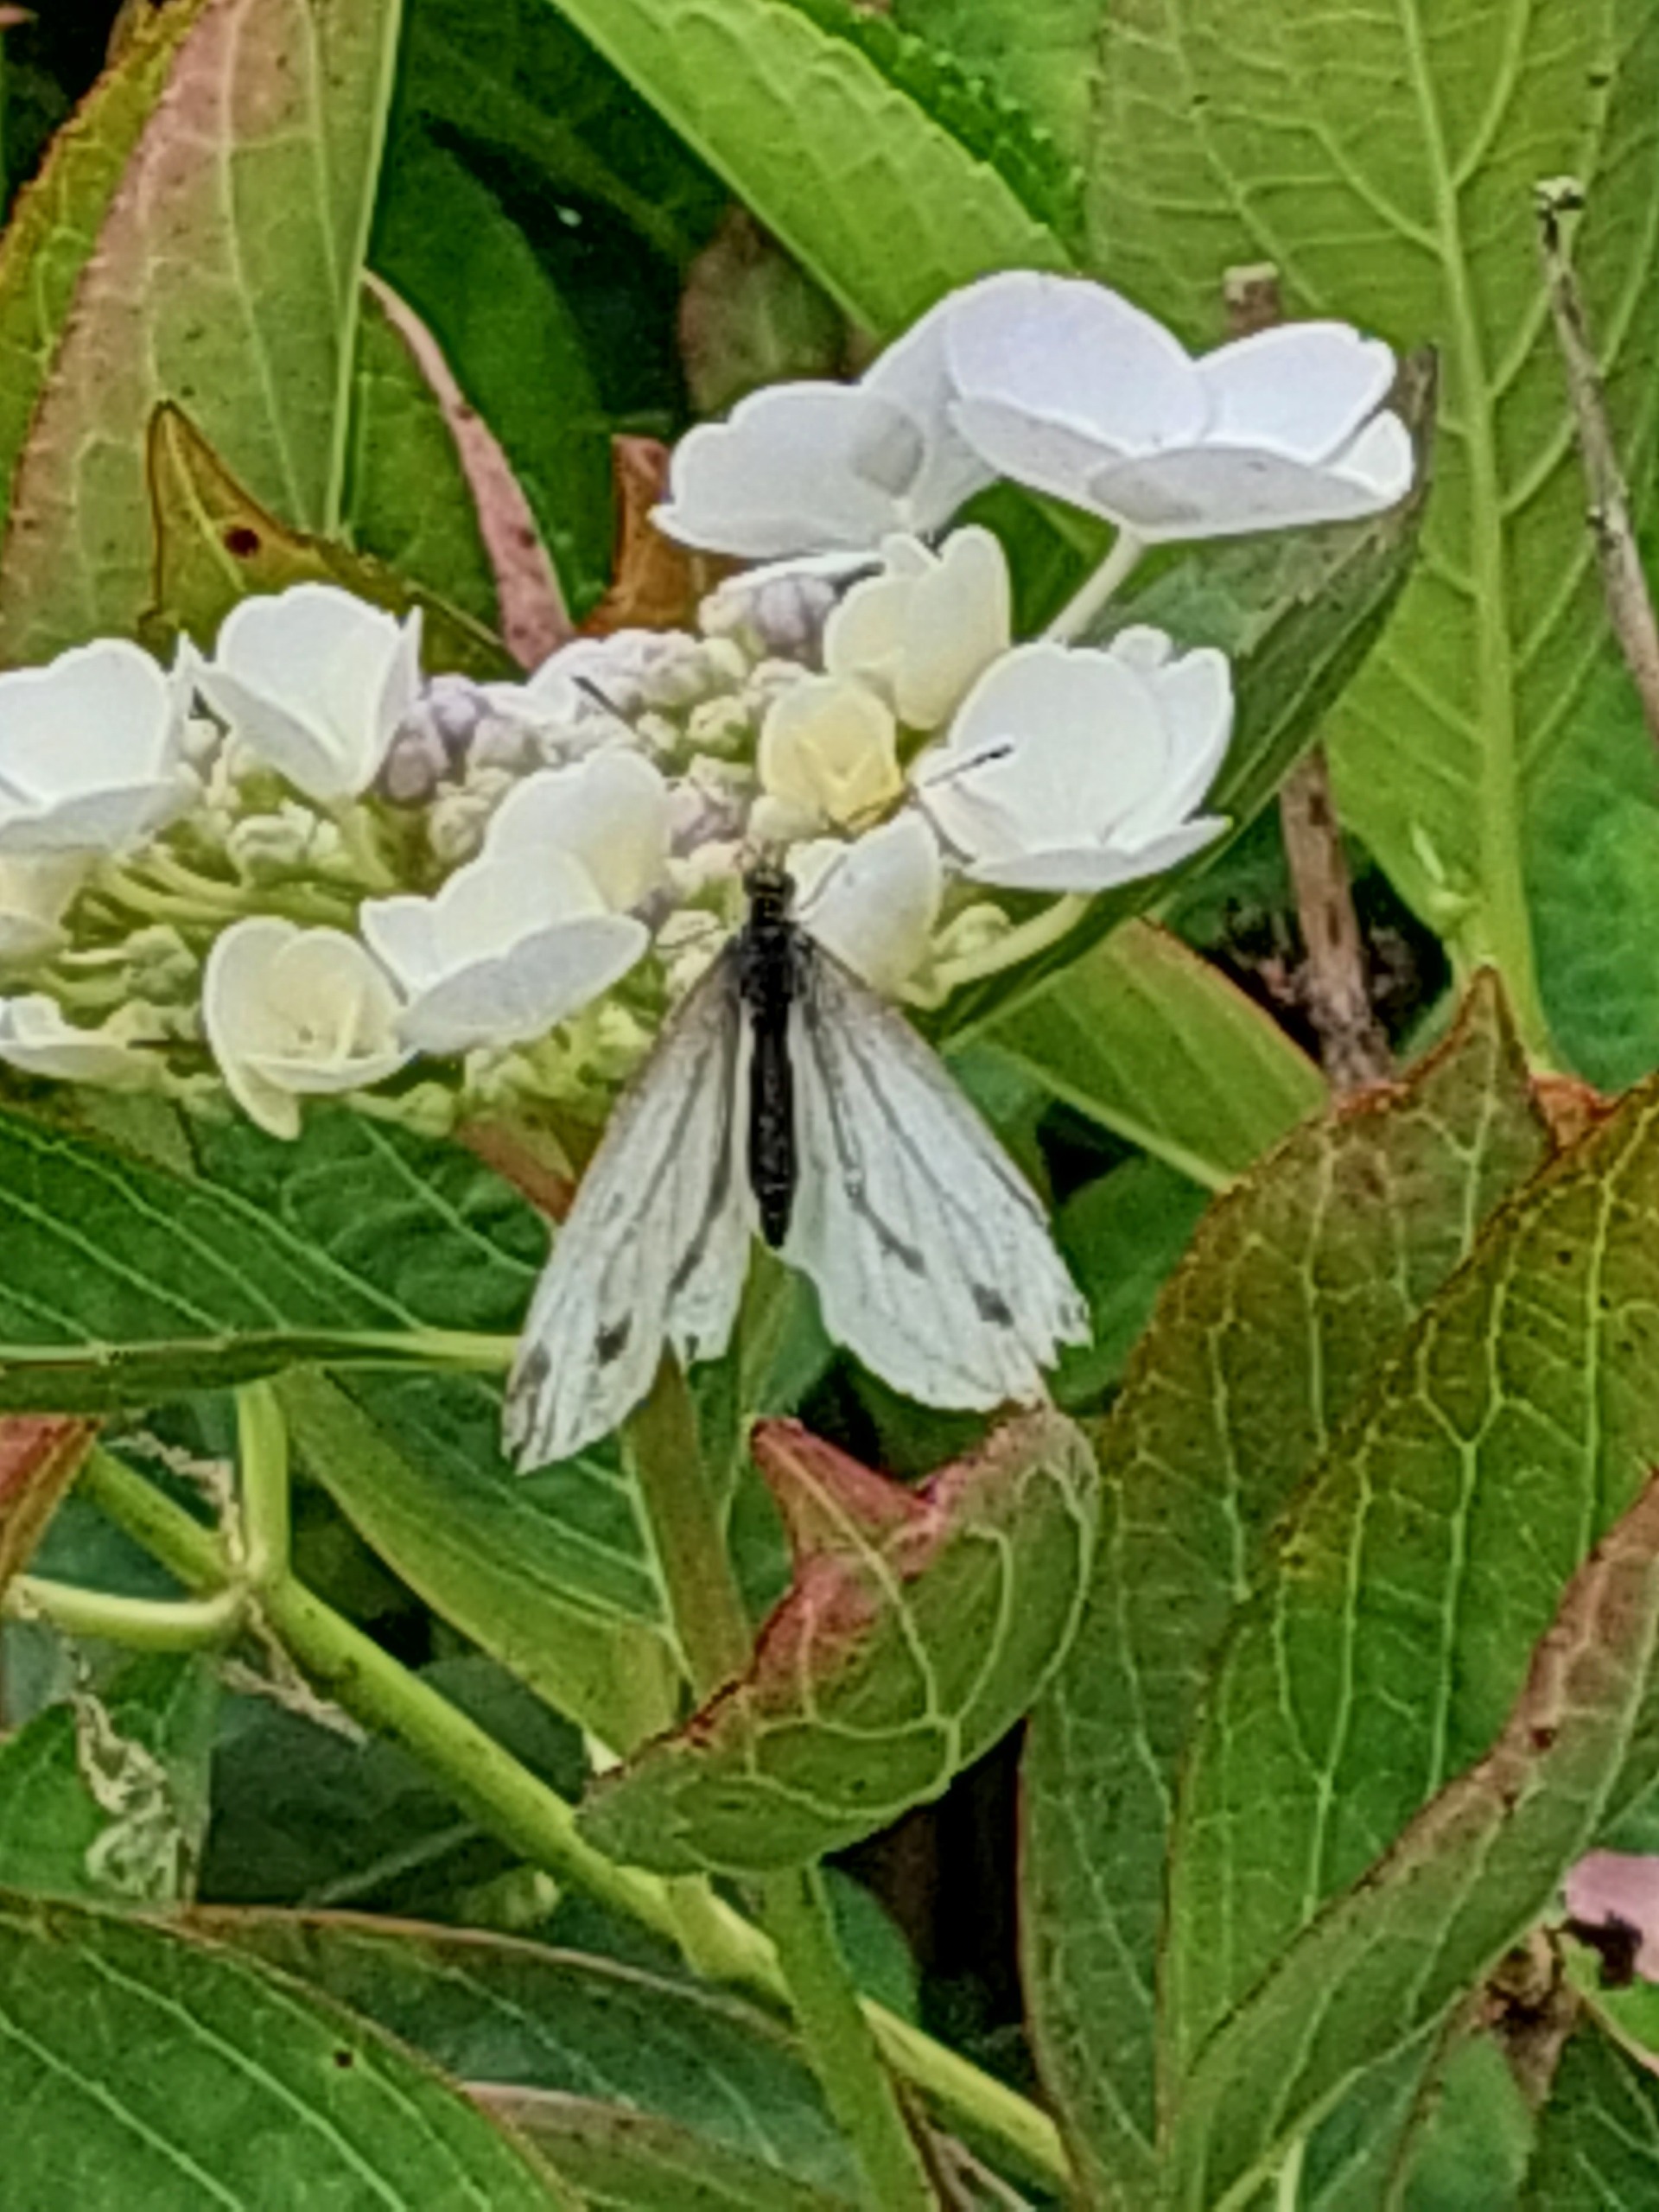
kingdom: Animalia
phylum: Arthropoda
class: Insecta
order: Lepidoptera
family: Pieridae
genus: Pieris
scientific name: Pieris napi
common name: Grønåret kålsommerfugl
